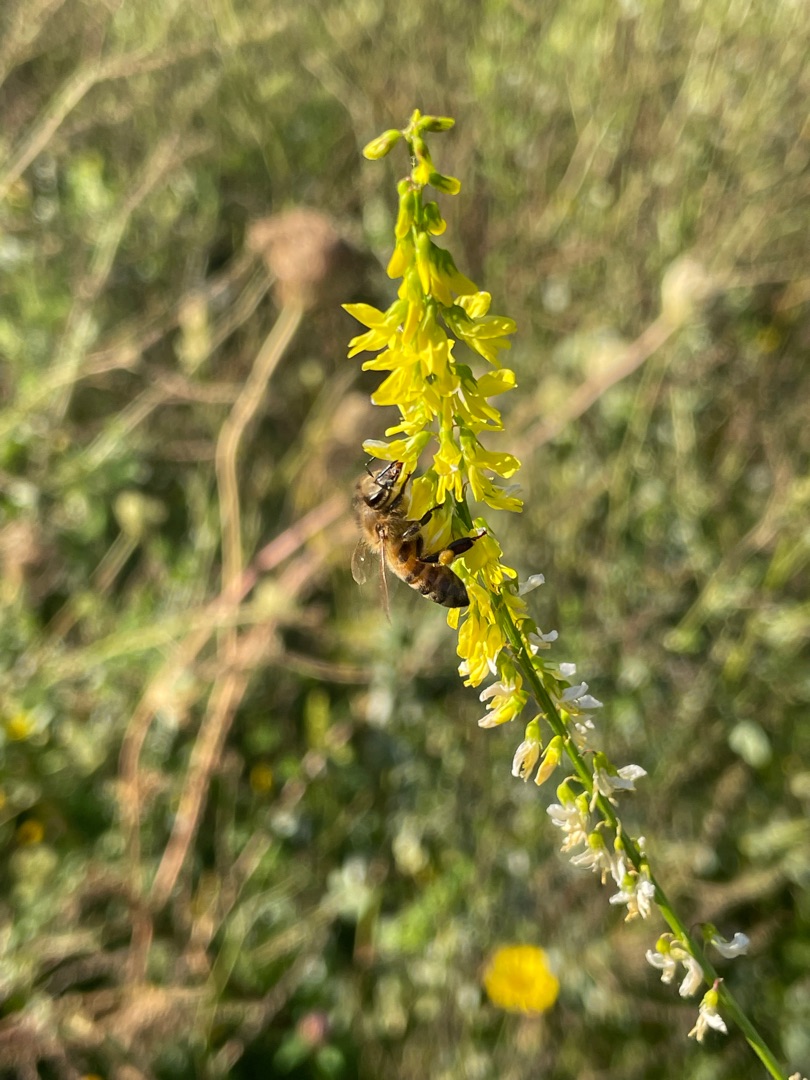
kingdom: Animalia
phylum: Arthropoda
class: Insecta
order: Hymenoptera
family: Apidae
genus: Apis
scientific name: Apis mellifera
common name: Honningbi
